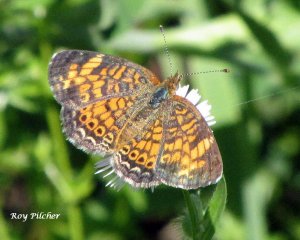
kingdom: Animalia
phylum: Arthropoda
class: Insecta
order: Lepidoptera
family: Nymphalidae
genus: Phyciodes
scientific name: Phyciodes tharos
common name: Pearl Crescent
